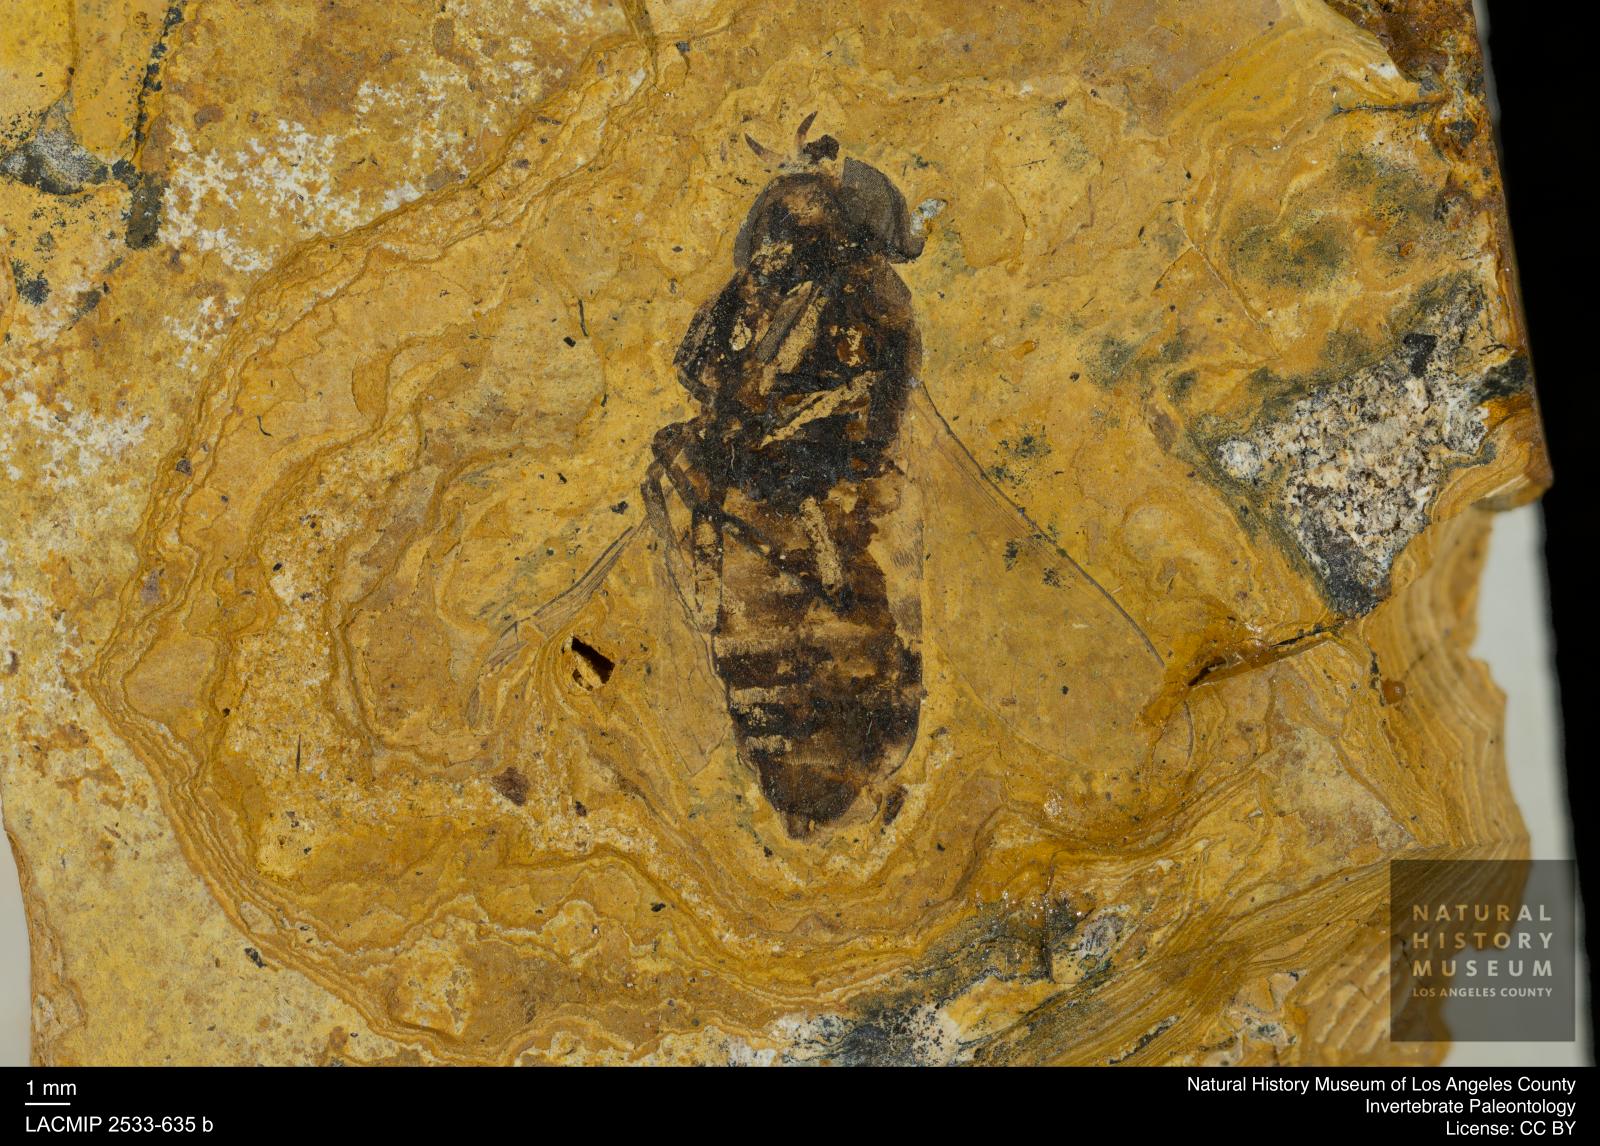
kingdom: Animalia
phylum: Arthropoda
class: Insecta
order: Diptera
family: Tabanidae
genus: Tabanus
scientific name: Tabanus statzi
